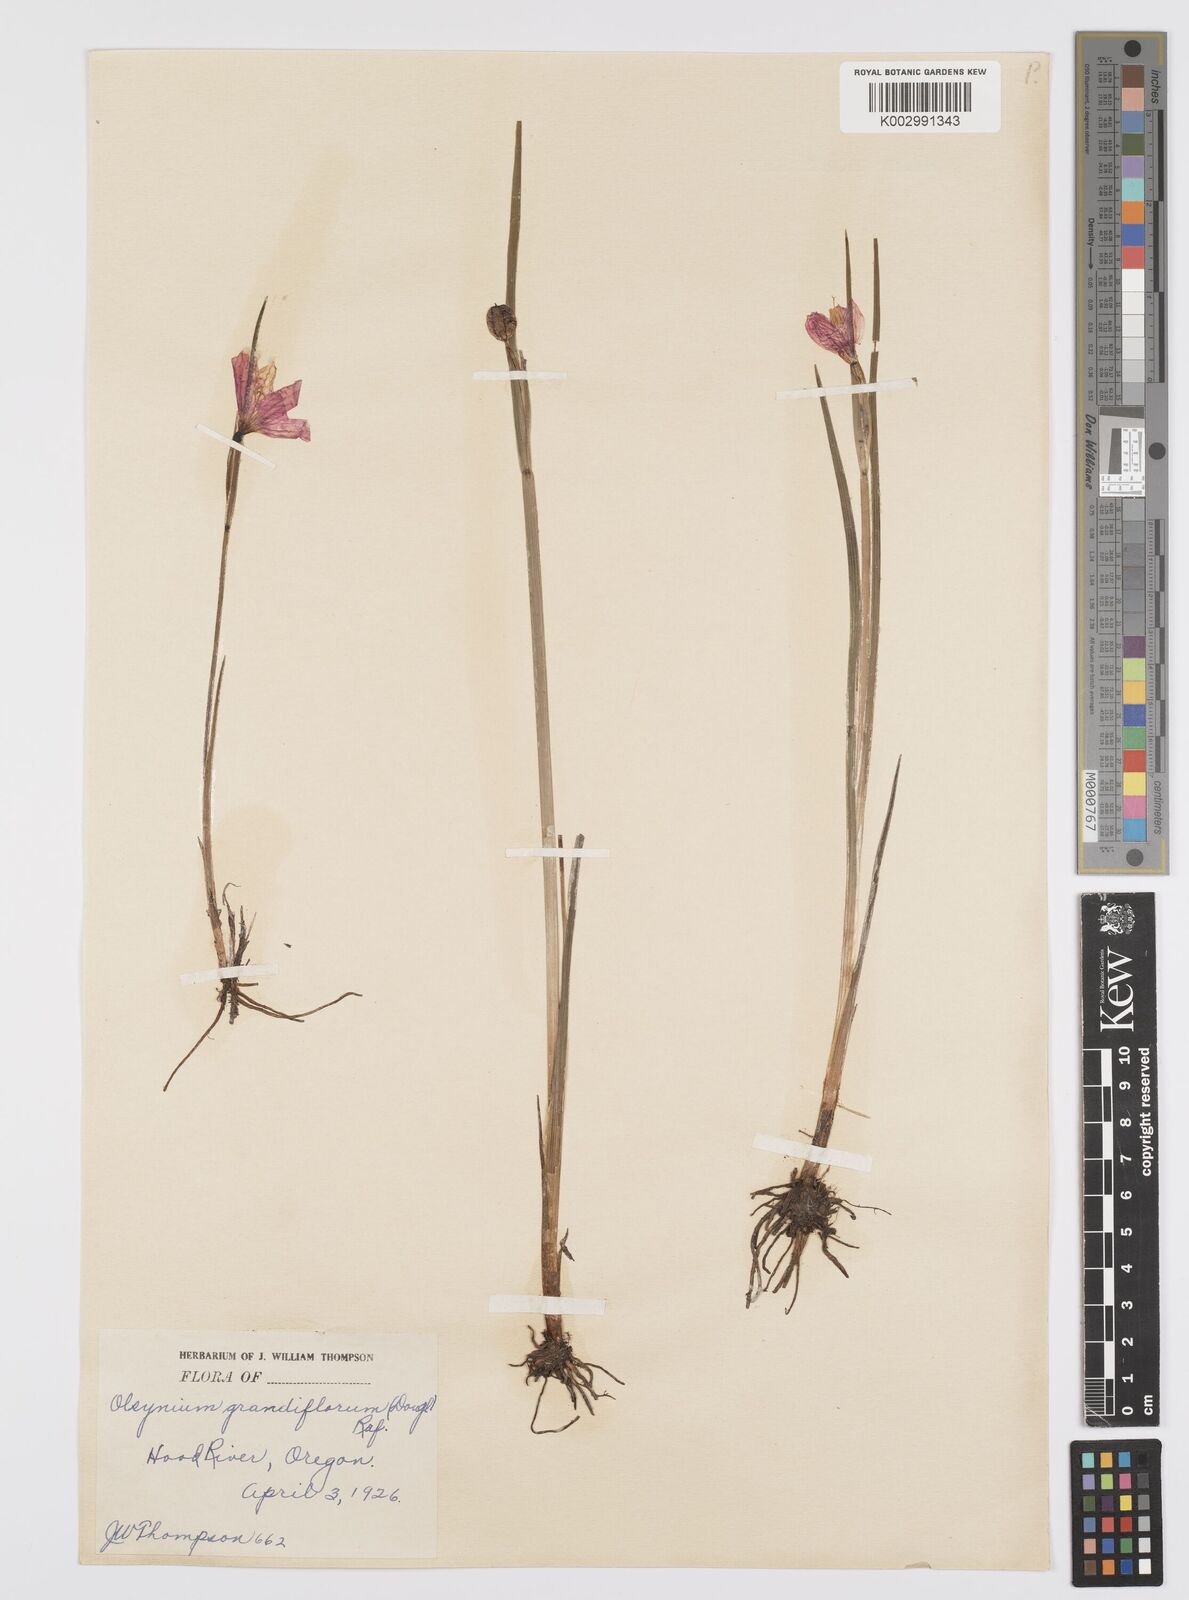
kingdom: Plantae
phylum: Tracheophyta
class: Liliopsida
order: Asparagales
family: Iridaceae
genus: Olsynium
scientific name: Olsynium douglasii
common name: Douglas' grasswidow
